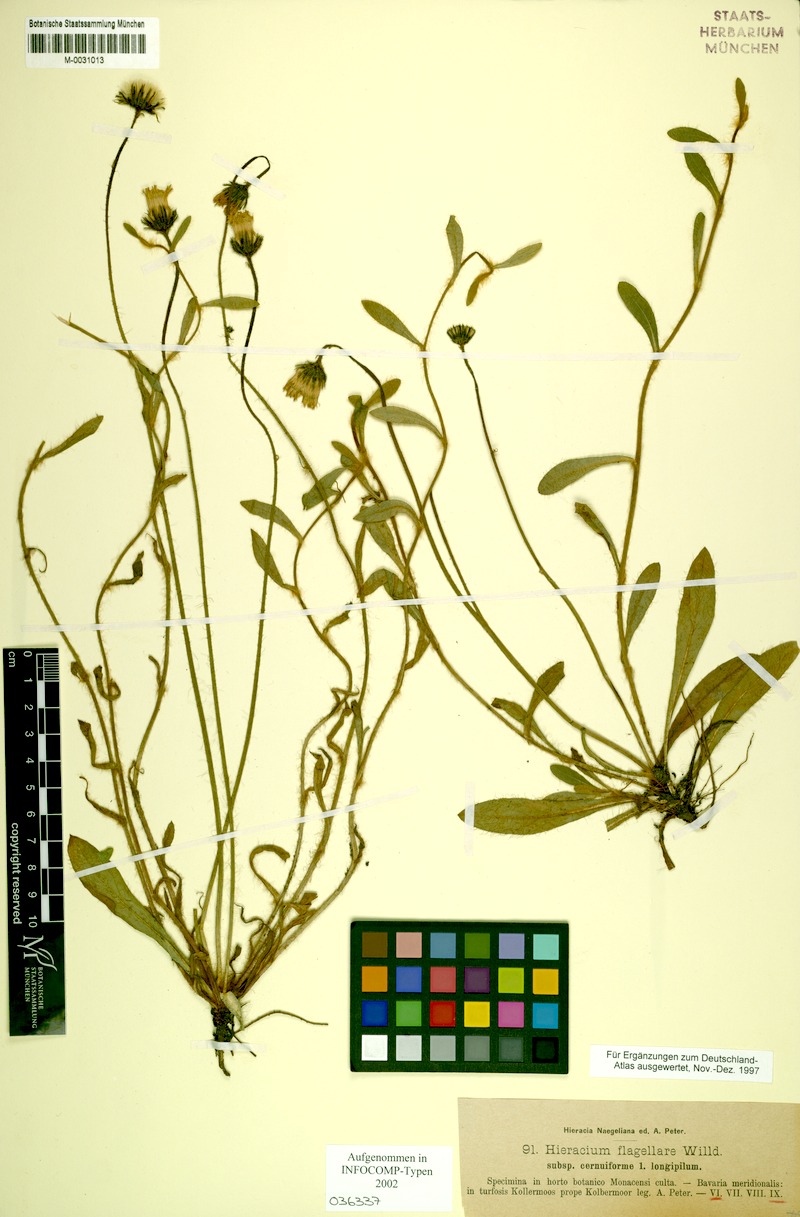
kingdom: Plantae
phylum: Tracheophyta
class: Magnoliopsida
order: Asterales
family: Asteraceae
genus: Pilosella
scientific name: Pilosella macrostolona
